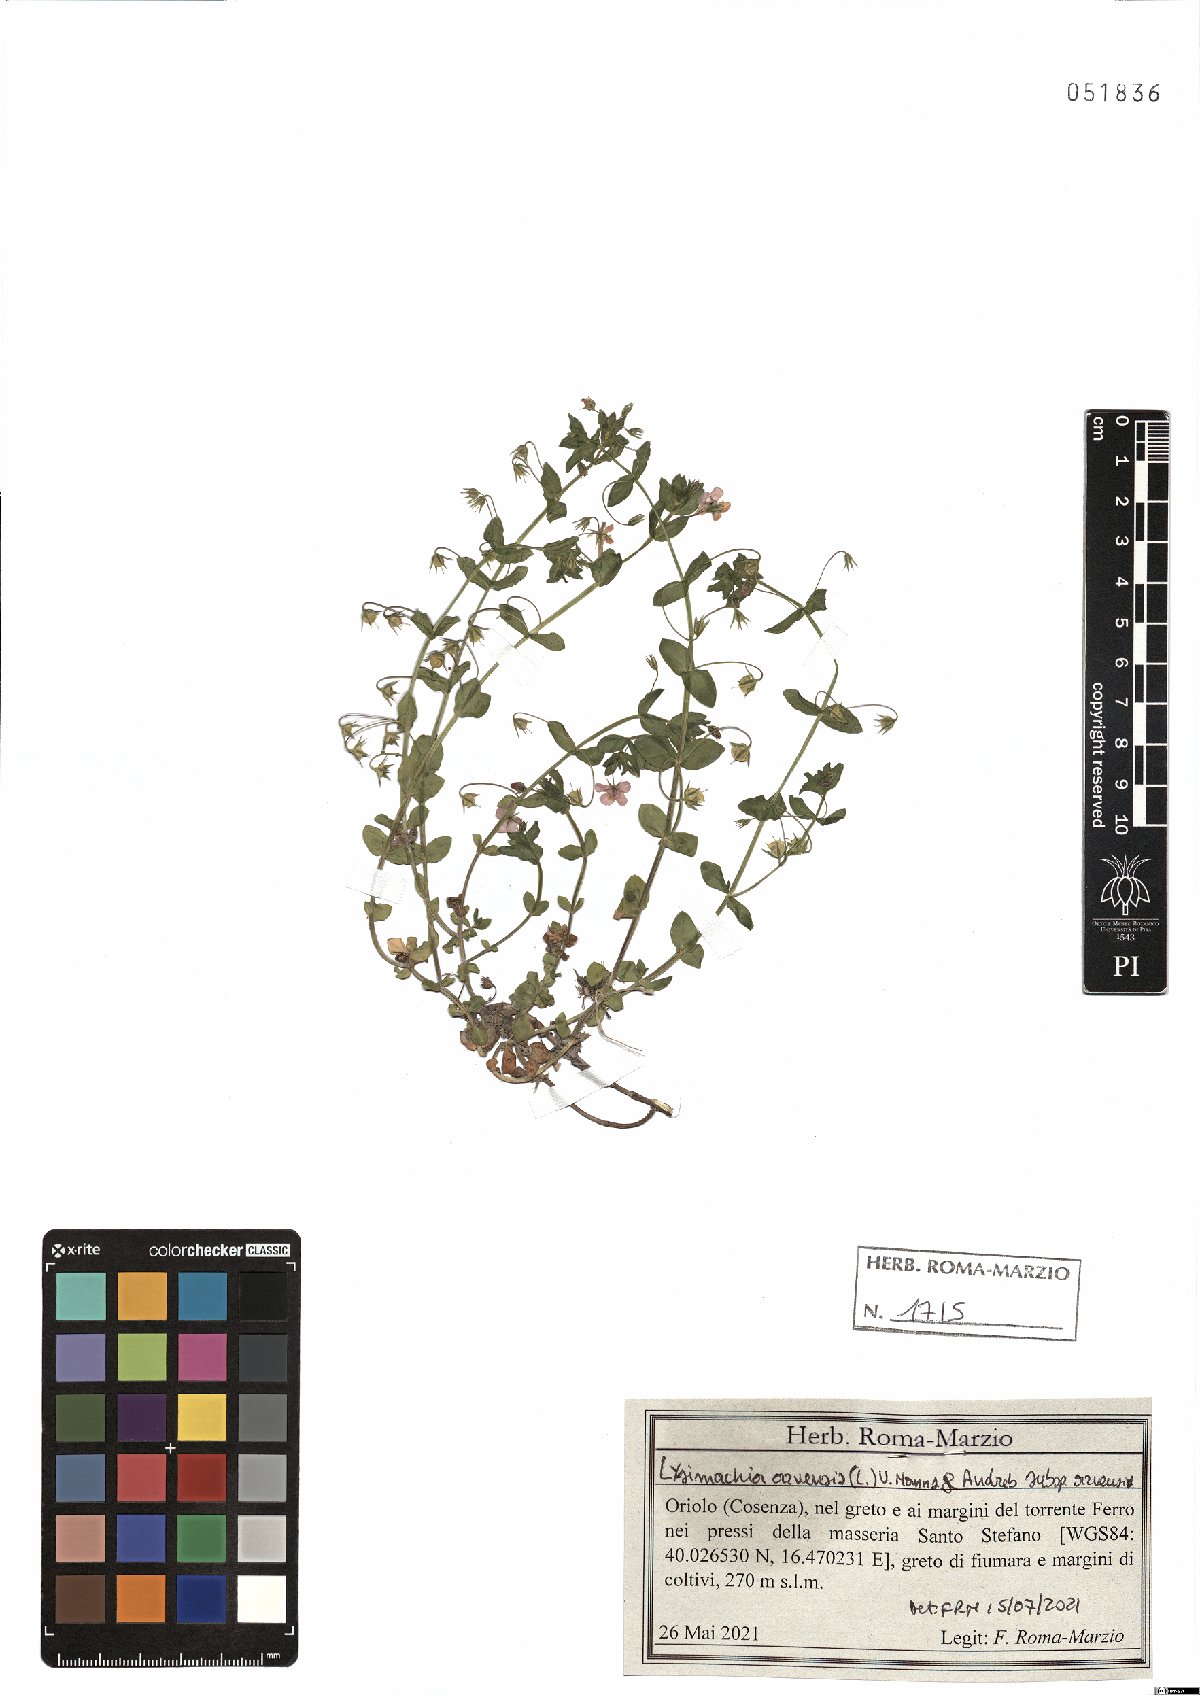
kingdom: Plantae
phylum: Tracheophyta
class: Magnoliopsida
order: Ericales
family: Primulaceae
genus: Lysimachia
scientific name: Lysimachia arvensis
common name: Scarlet pimpernel
